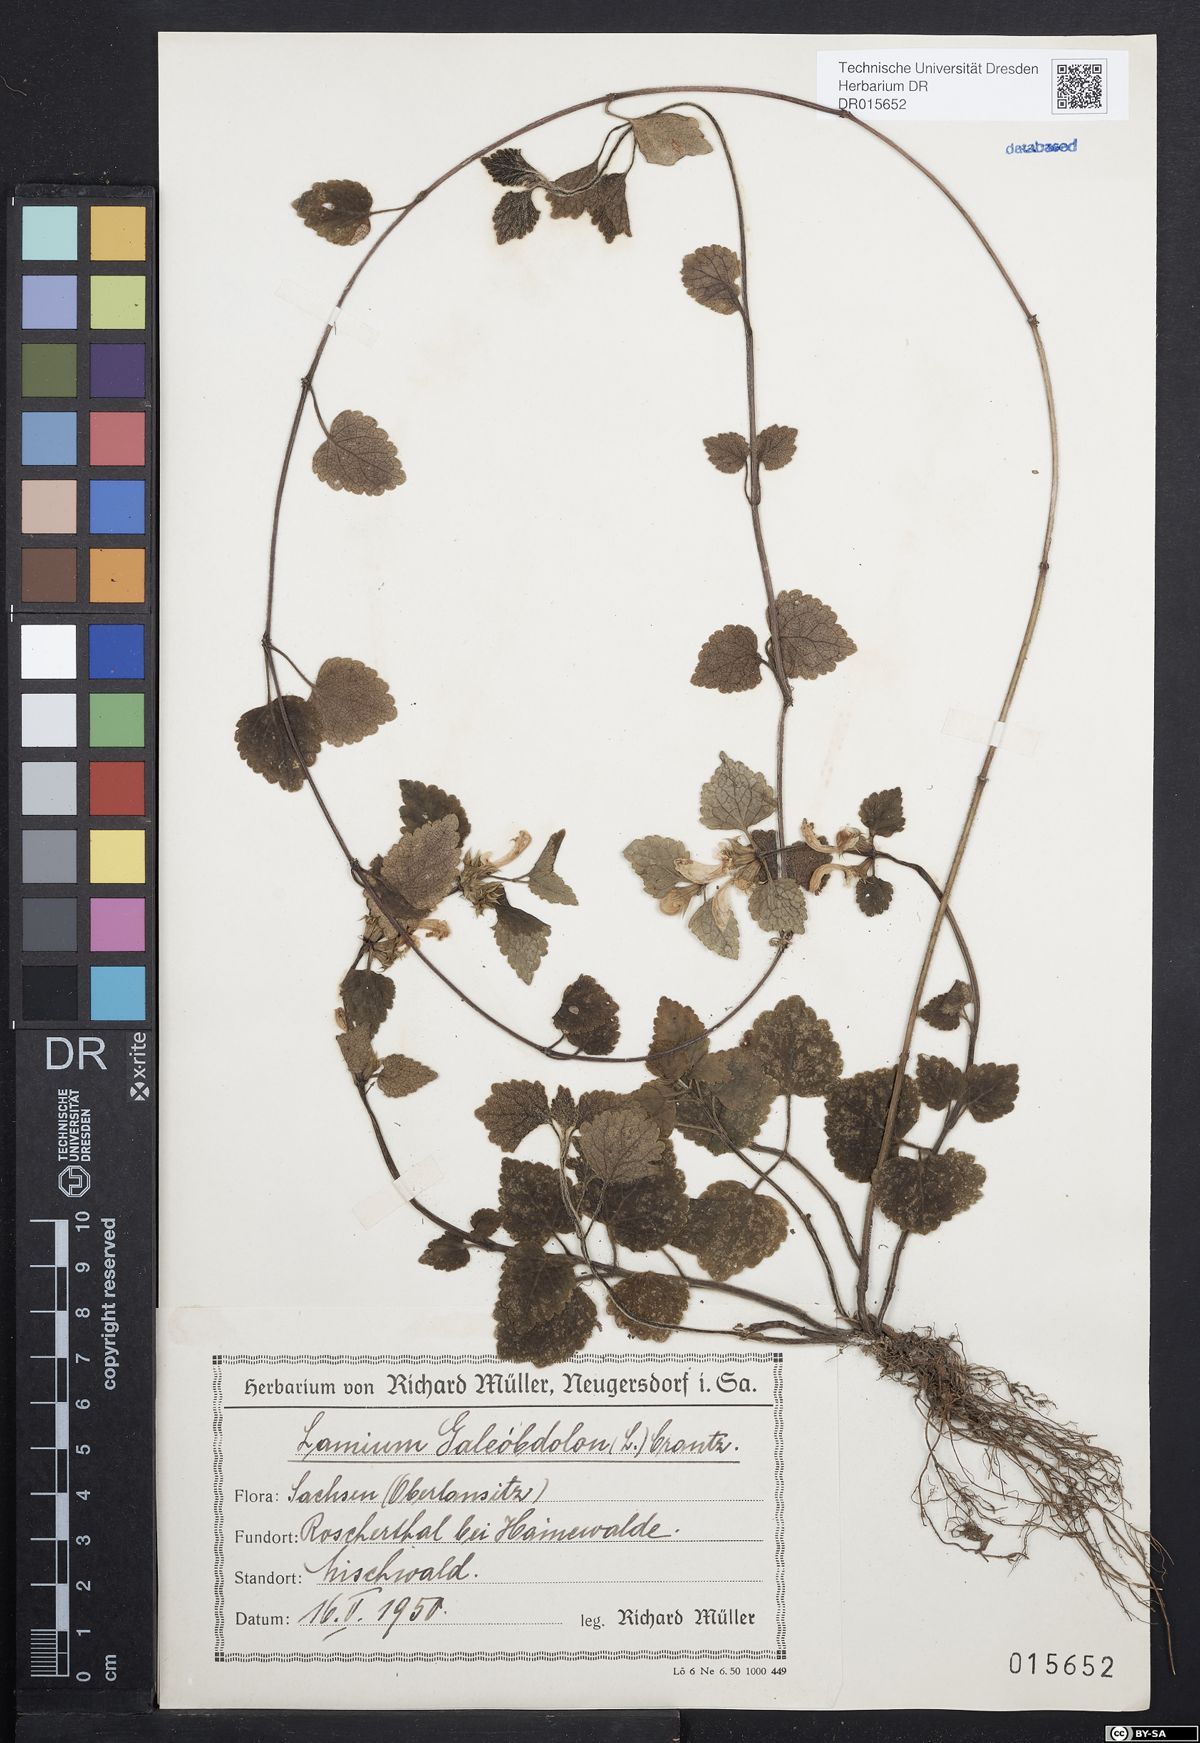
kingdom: Plantae
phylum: Tracheophyta
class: Magnoliopsida
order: Lamiales
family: Lamiaceae
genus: Lamium
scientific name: Lamium galeobdolon
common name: Yellow archangel
